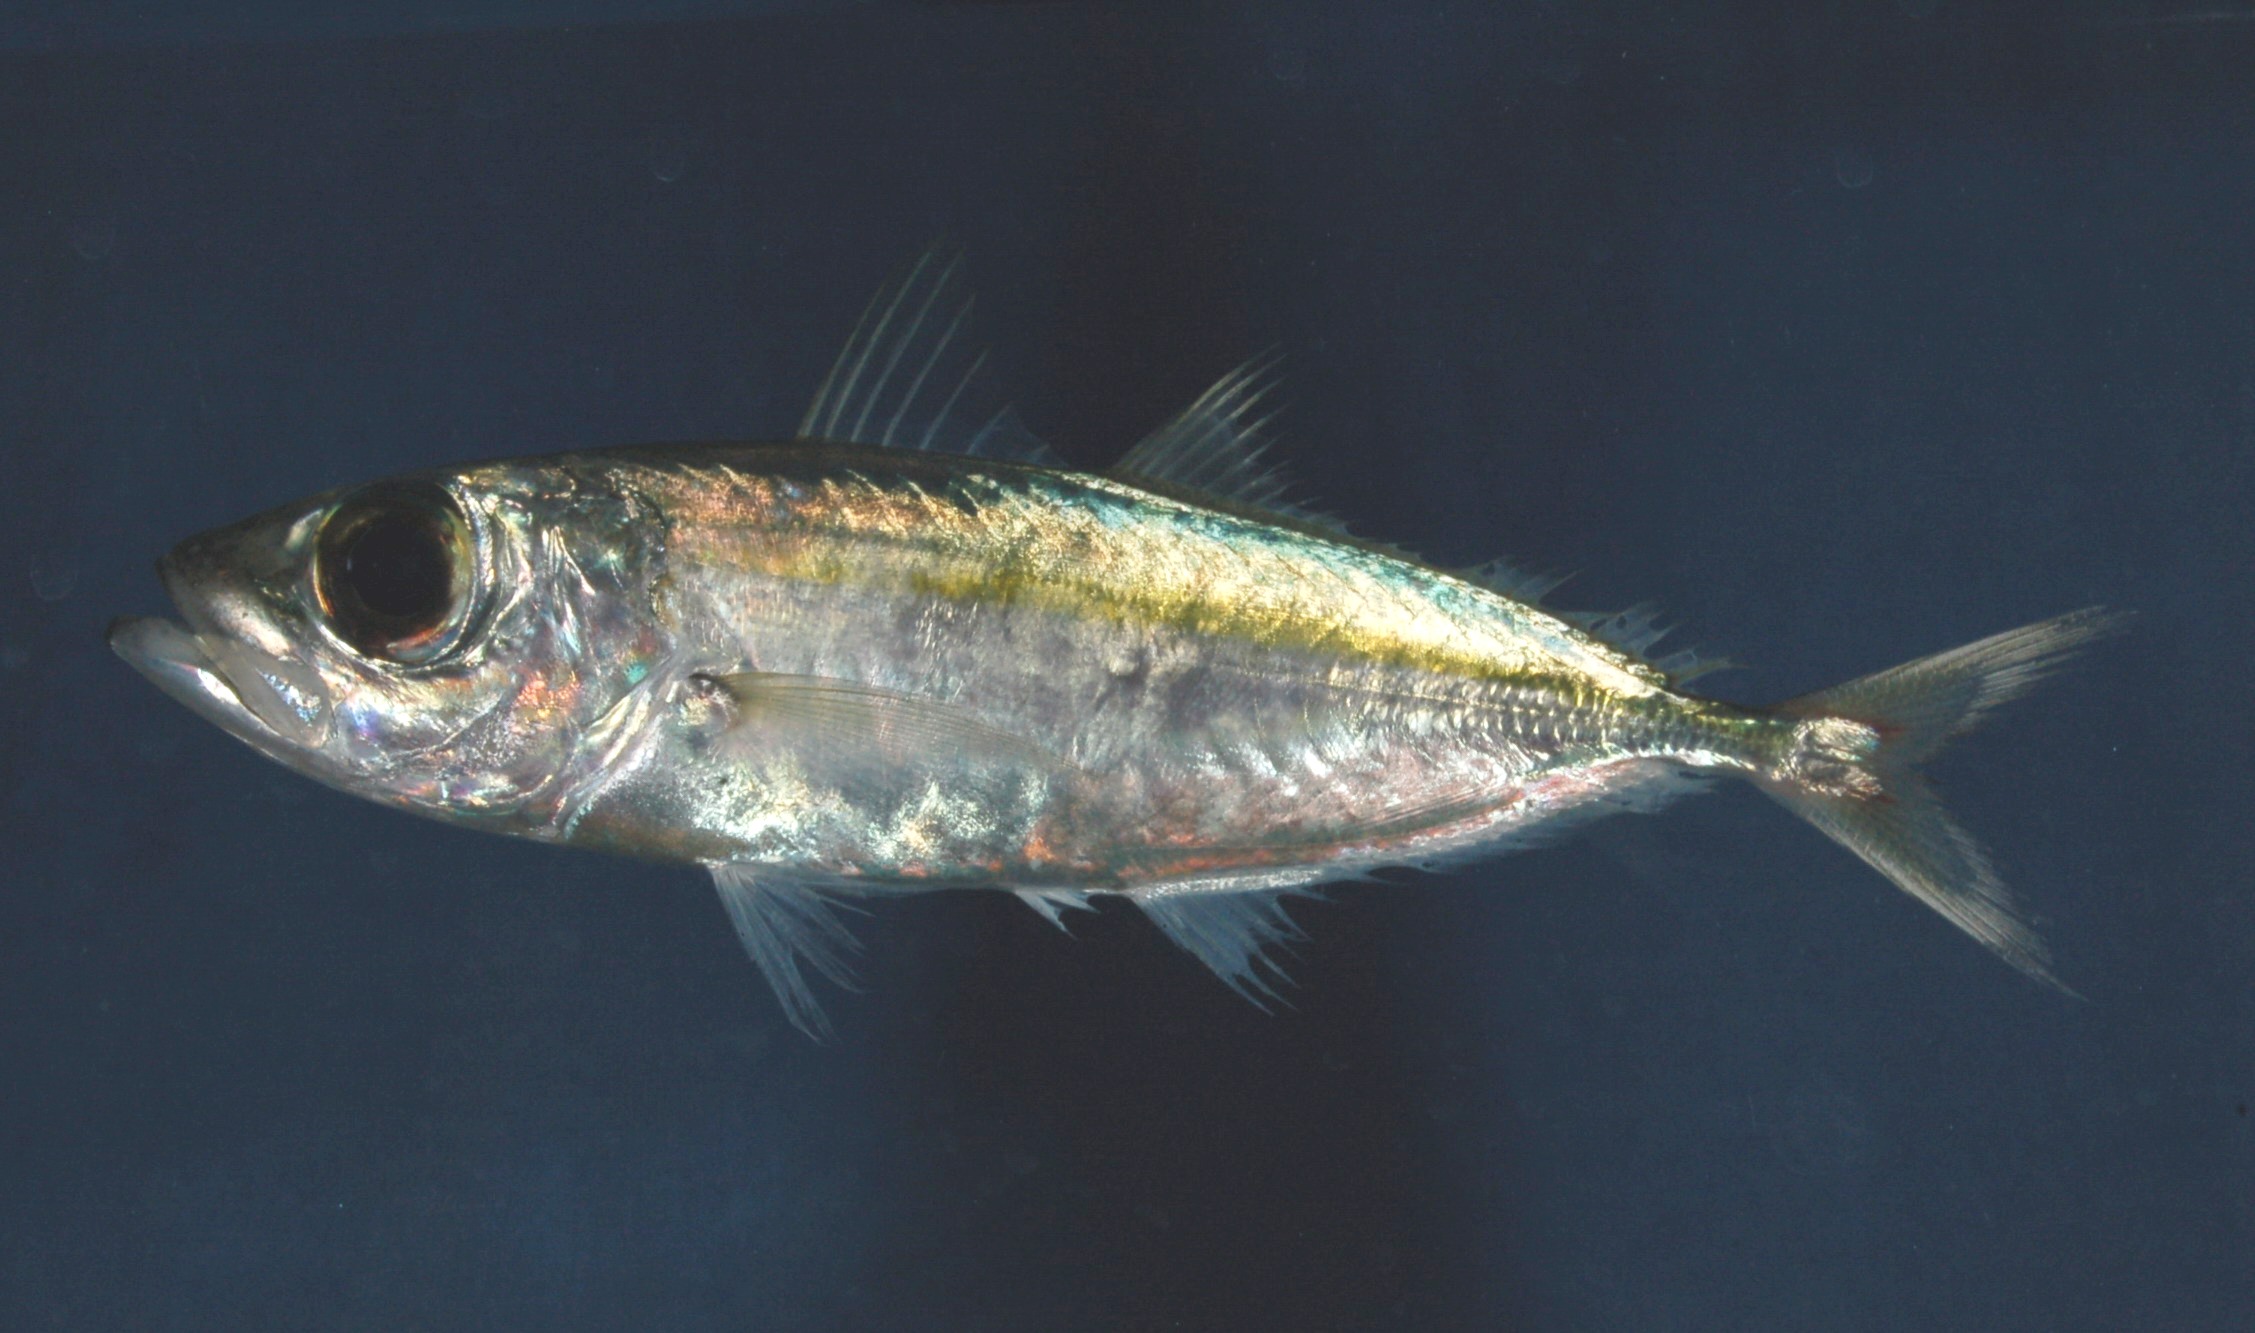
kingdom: Animalia
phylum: Chordata
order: Tetraodontiformes
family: Ostraciidae
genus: Lactoria
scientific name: Lactoria cornuta
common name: Longhorn cowfish
